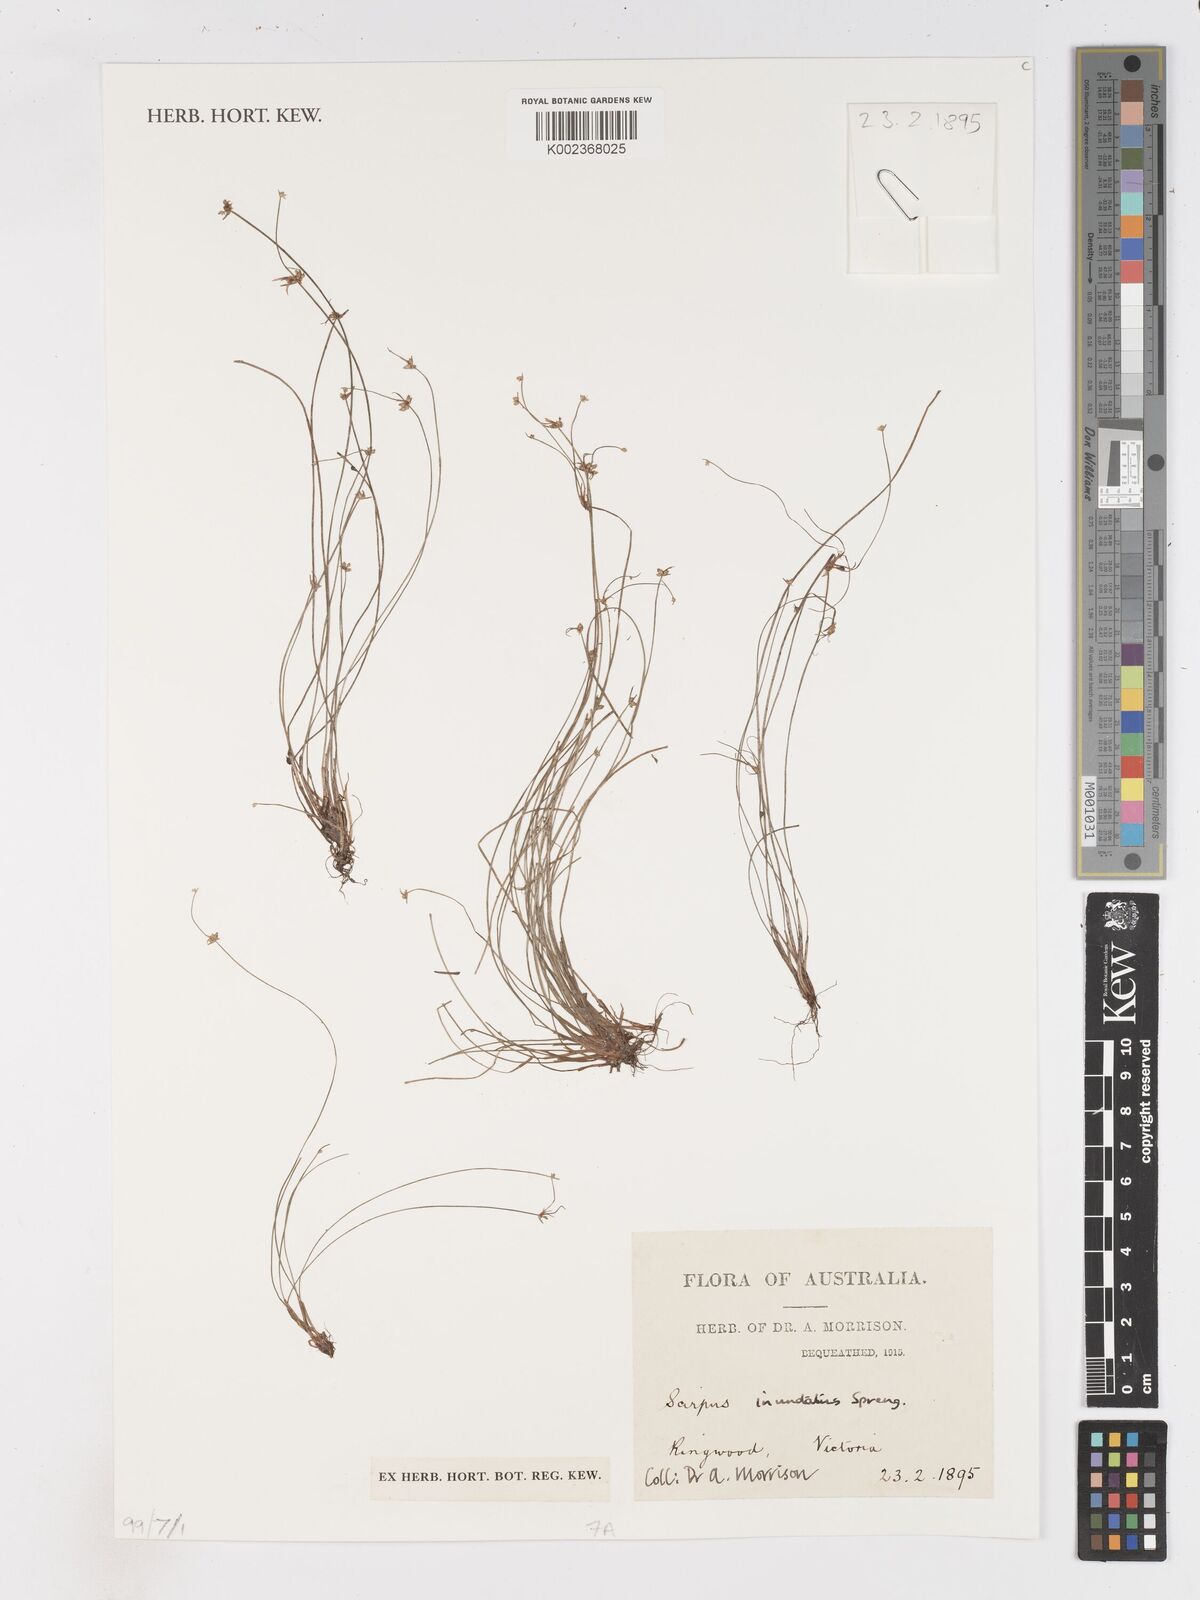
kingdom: Plantae
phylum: Tracheophyta
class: Liliopsida
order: Poales
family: Cyperaceae
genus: Isolepis
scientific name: Isolepis inundata
